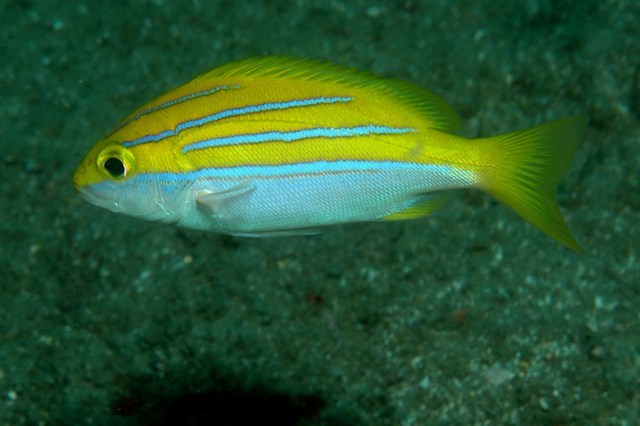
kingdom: Animalia
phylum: Chordata
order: Perciformes
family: Lutjanidae
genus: Lutjanus
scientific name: Lutjanus bengalensis
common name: Bengal snapper
